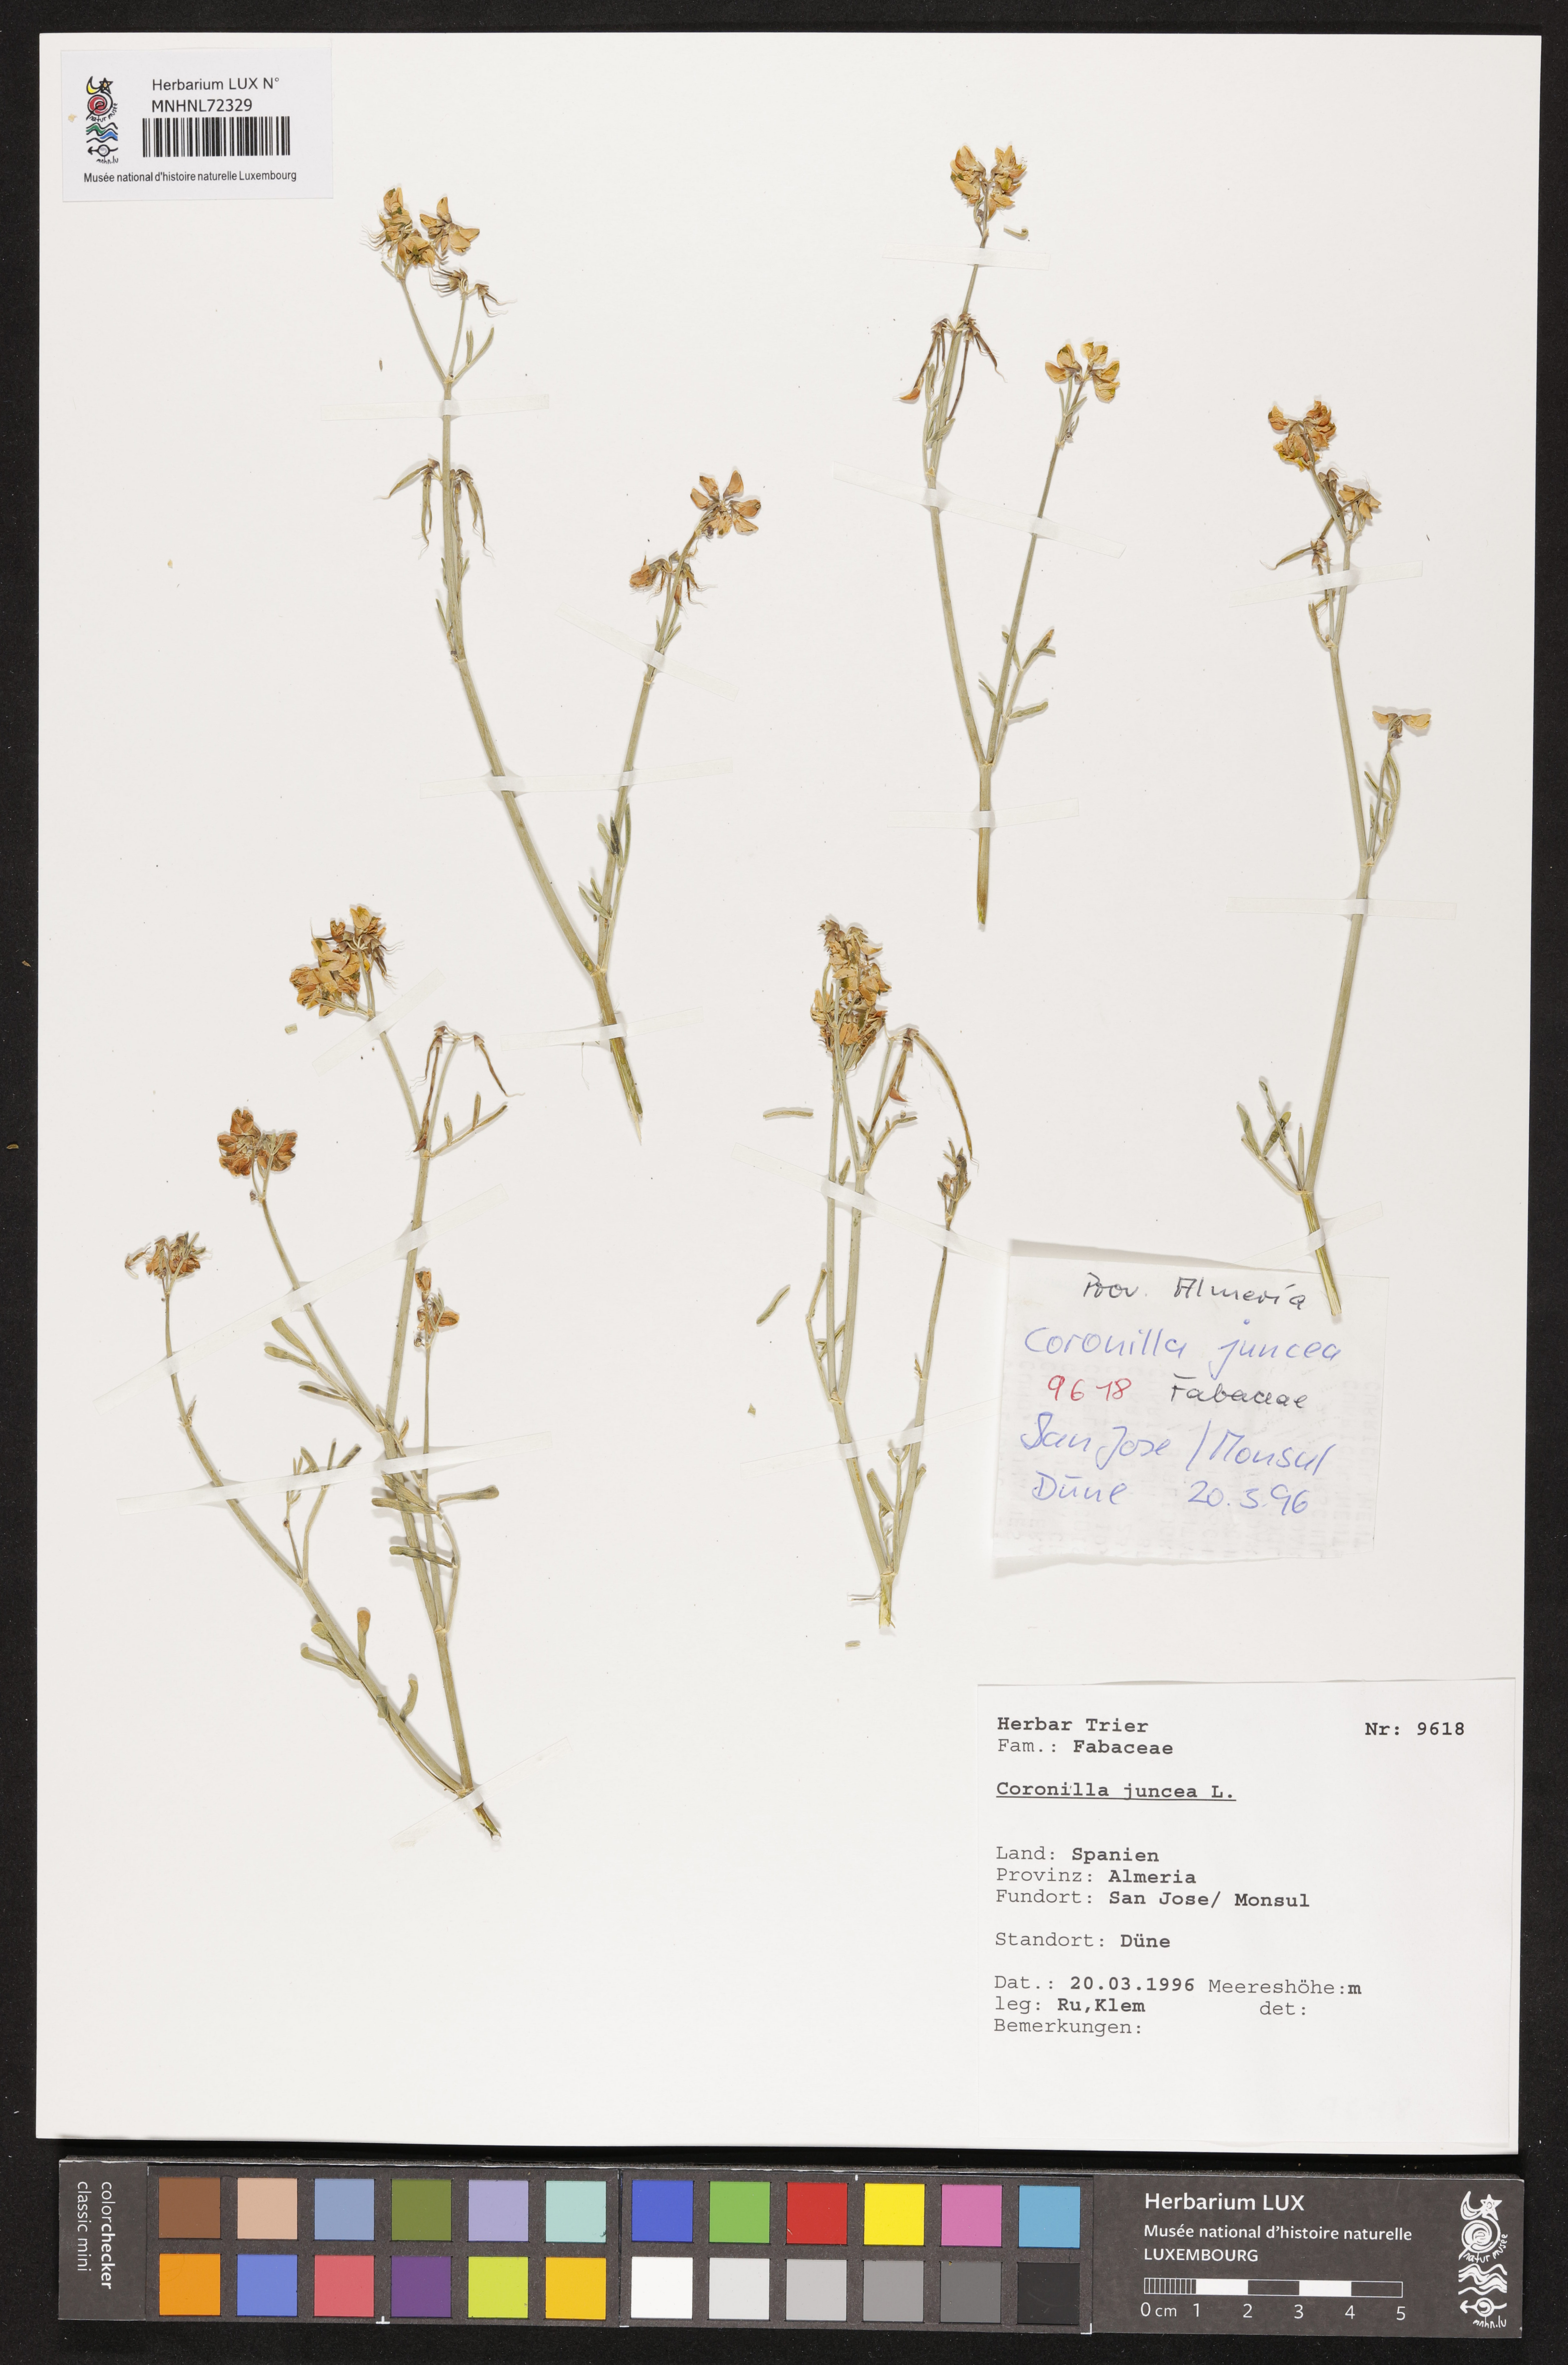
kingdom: Plantae
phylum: Tracheophyta
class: Magnoliopsida
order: Fabales
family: Fabaceae
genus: Coronilla
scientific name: Coronilla juncea
